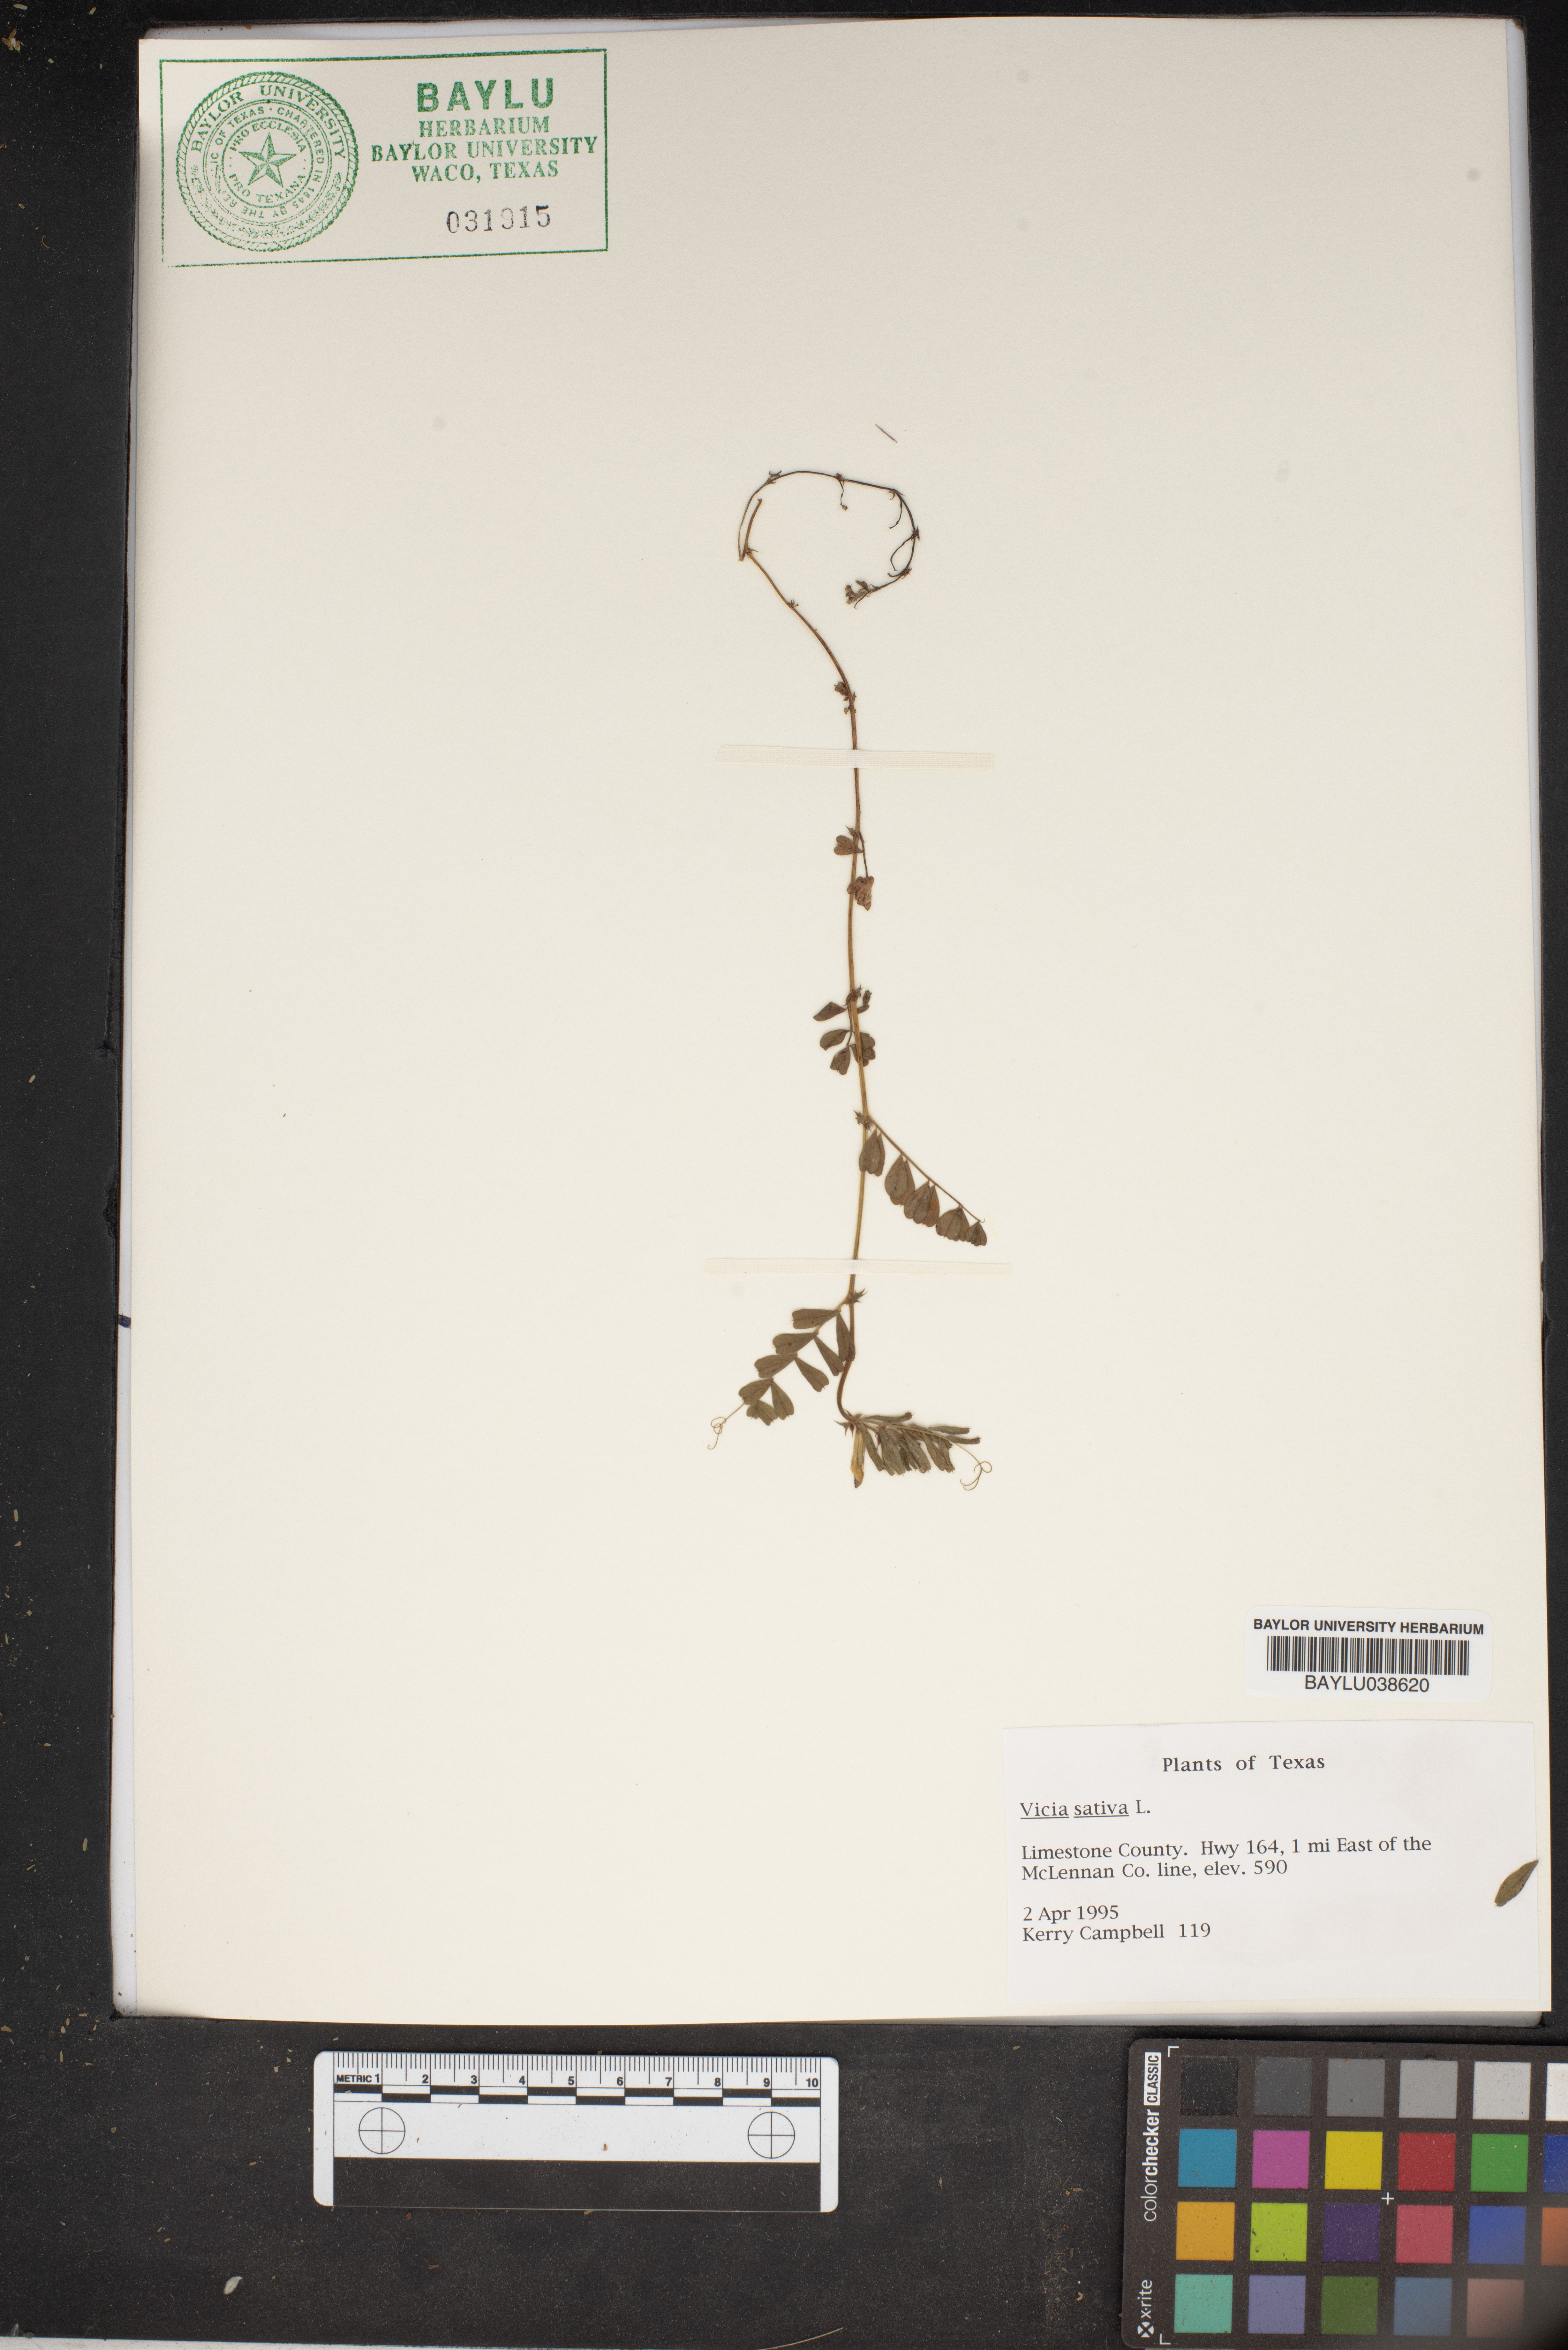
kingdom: Plantae
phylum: Tracheophyta
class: Magnoliopsida
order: Fabales
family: Fabaceae
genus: Vicia
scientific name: Vicia sativa
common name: Garden vetch
